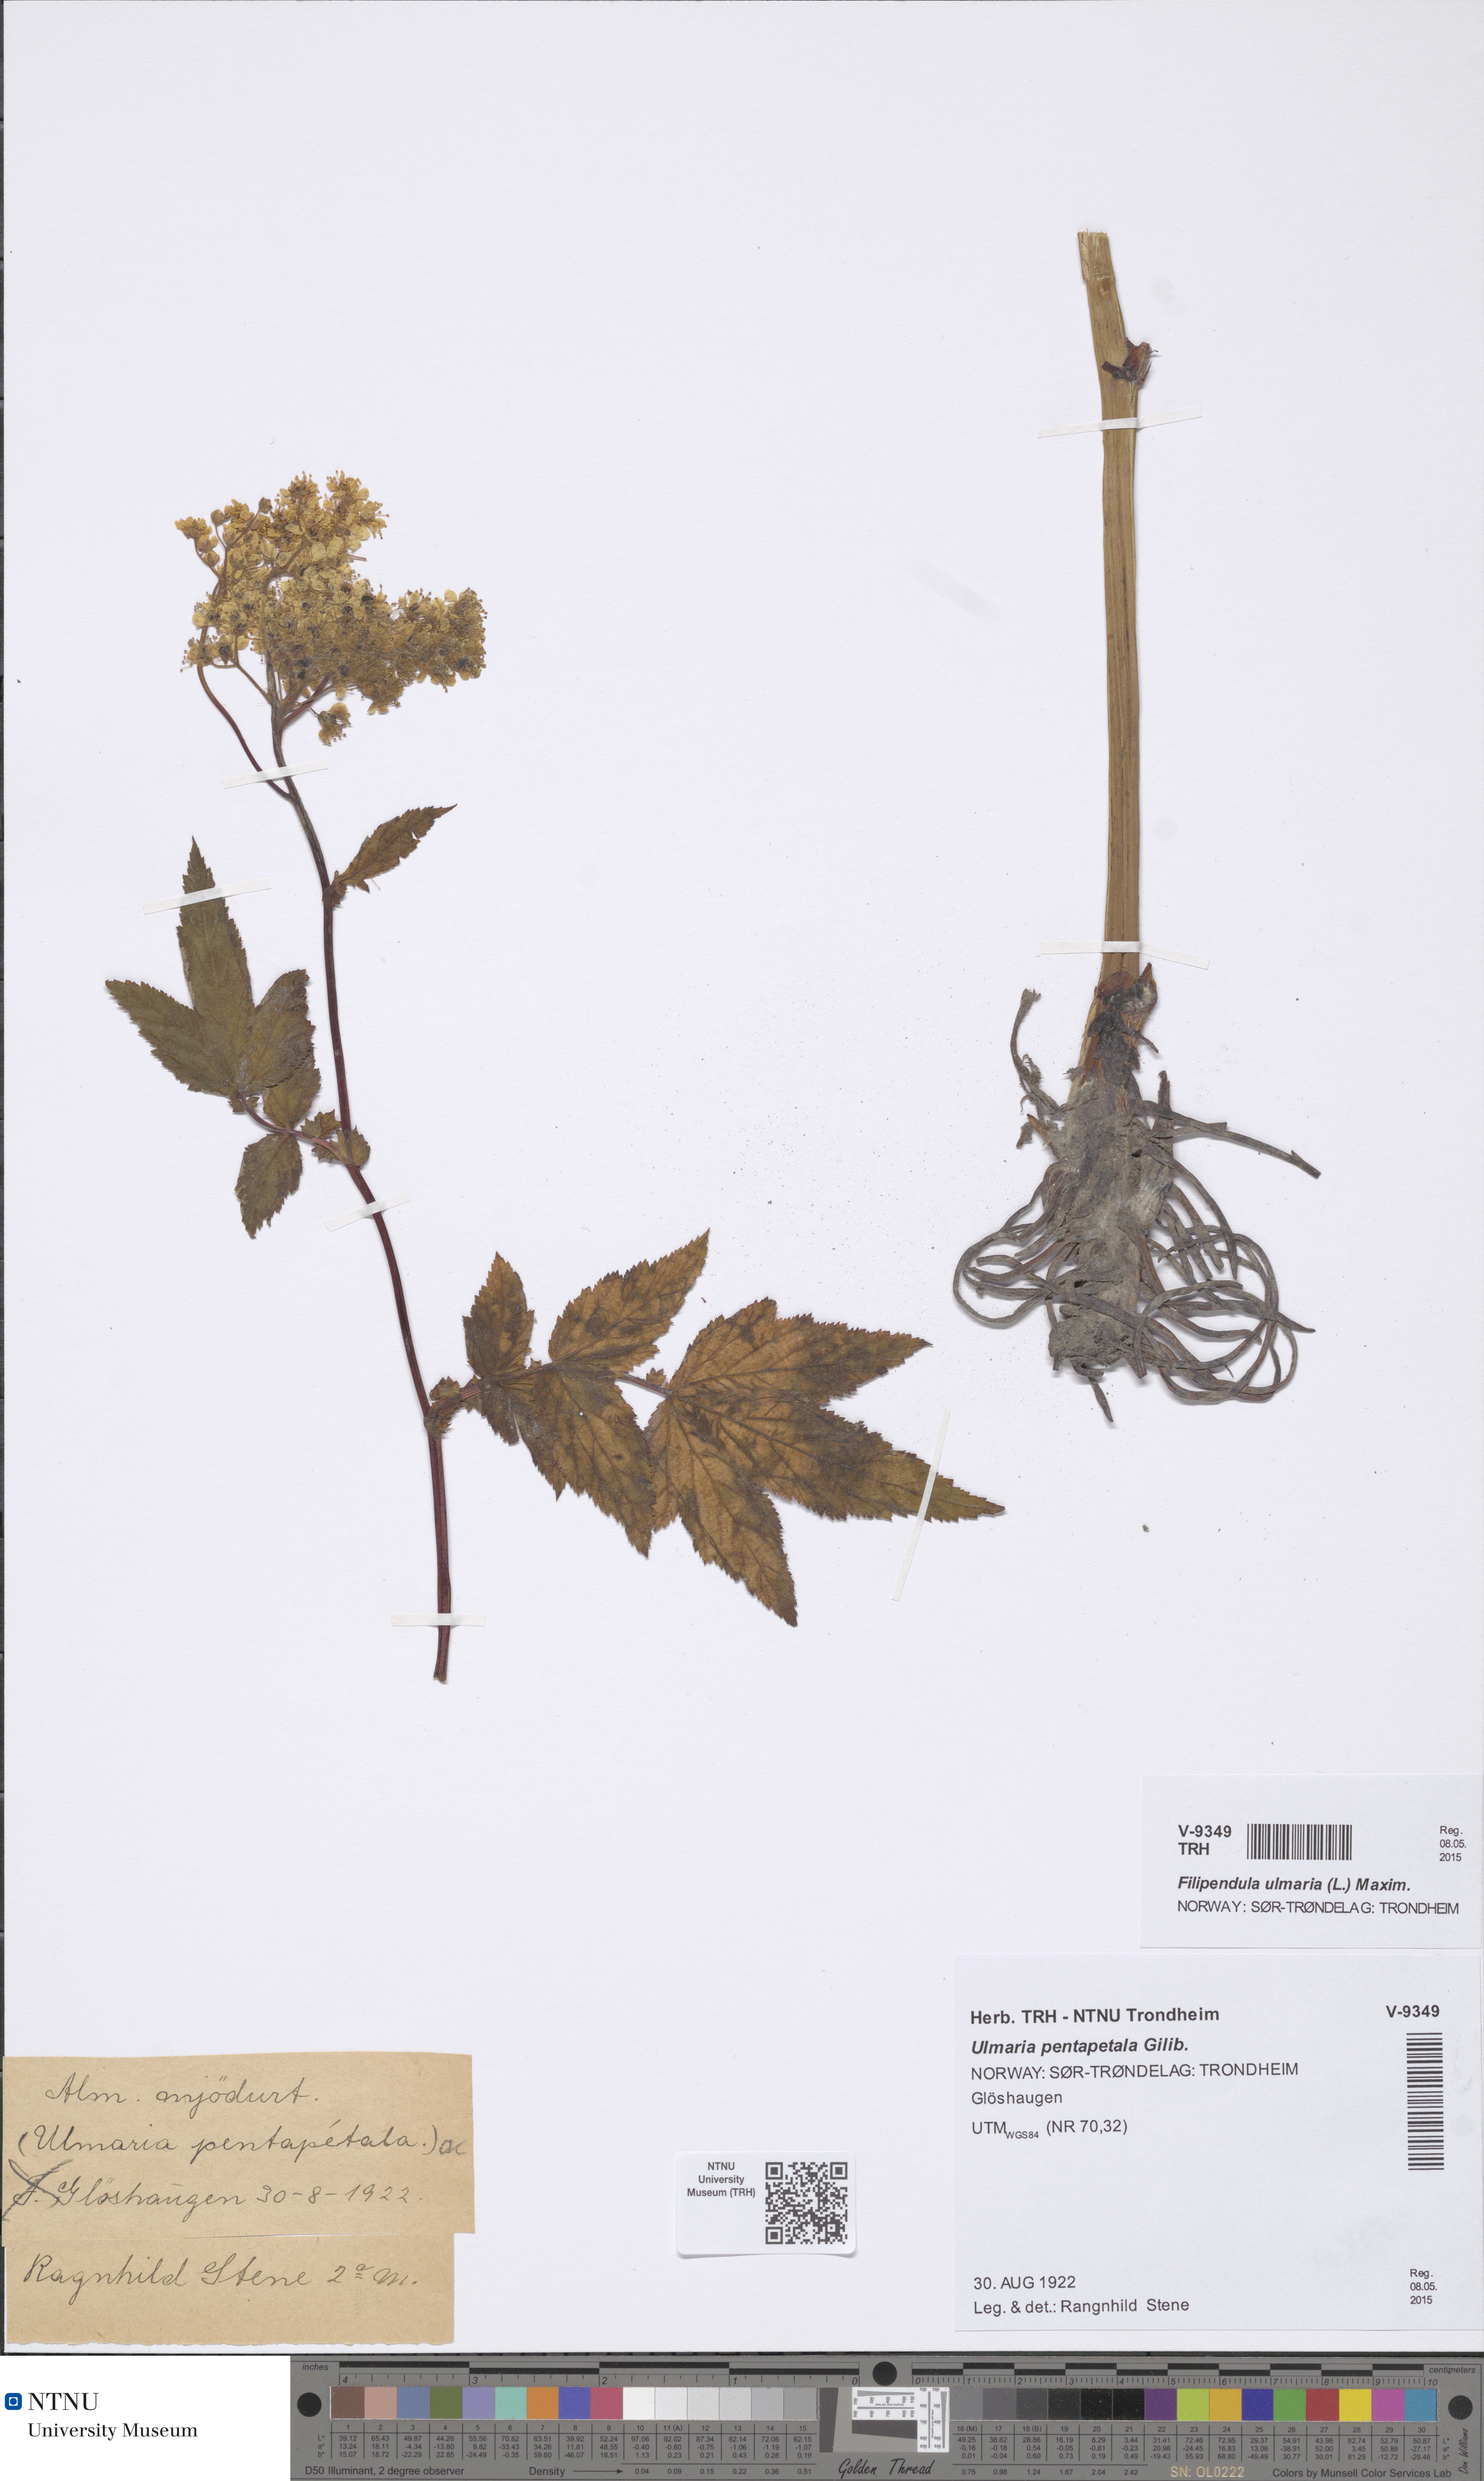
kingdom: Plantae
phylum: Tracheophyta
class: Magnoliopsida
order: Rosales
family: Rosaceae
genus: Filipendula
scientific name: Filipendula ulmaria
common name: Meadowsweet
